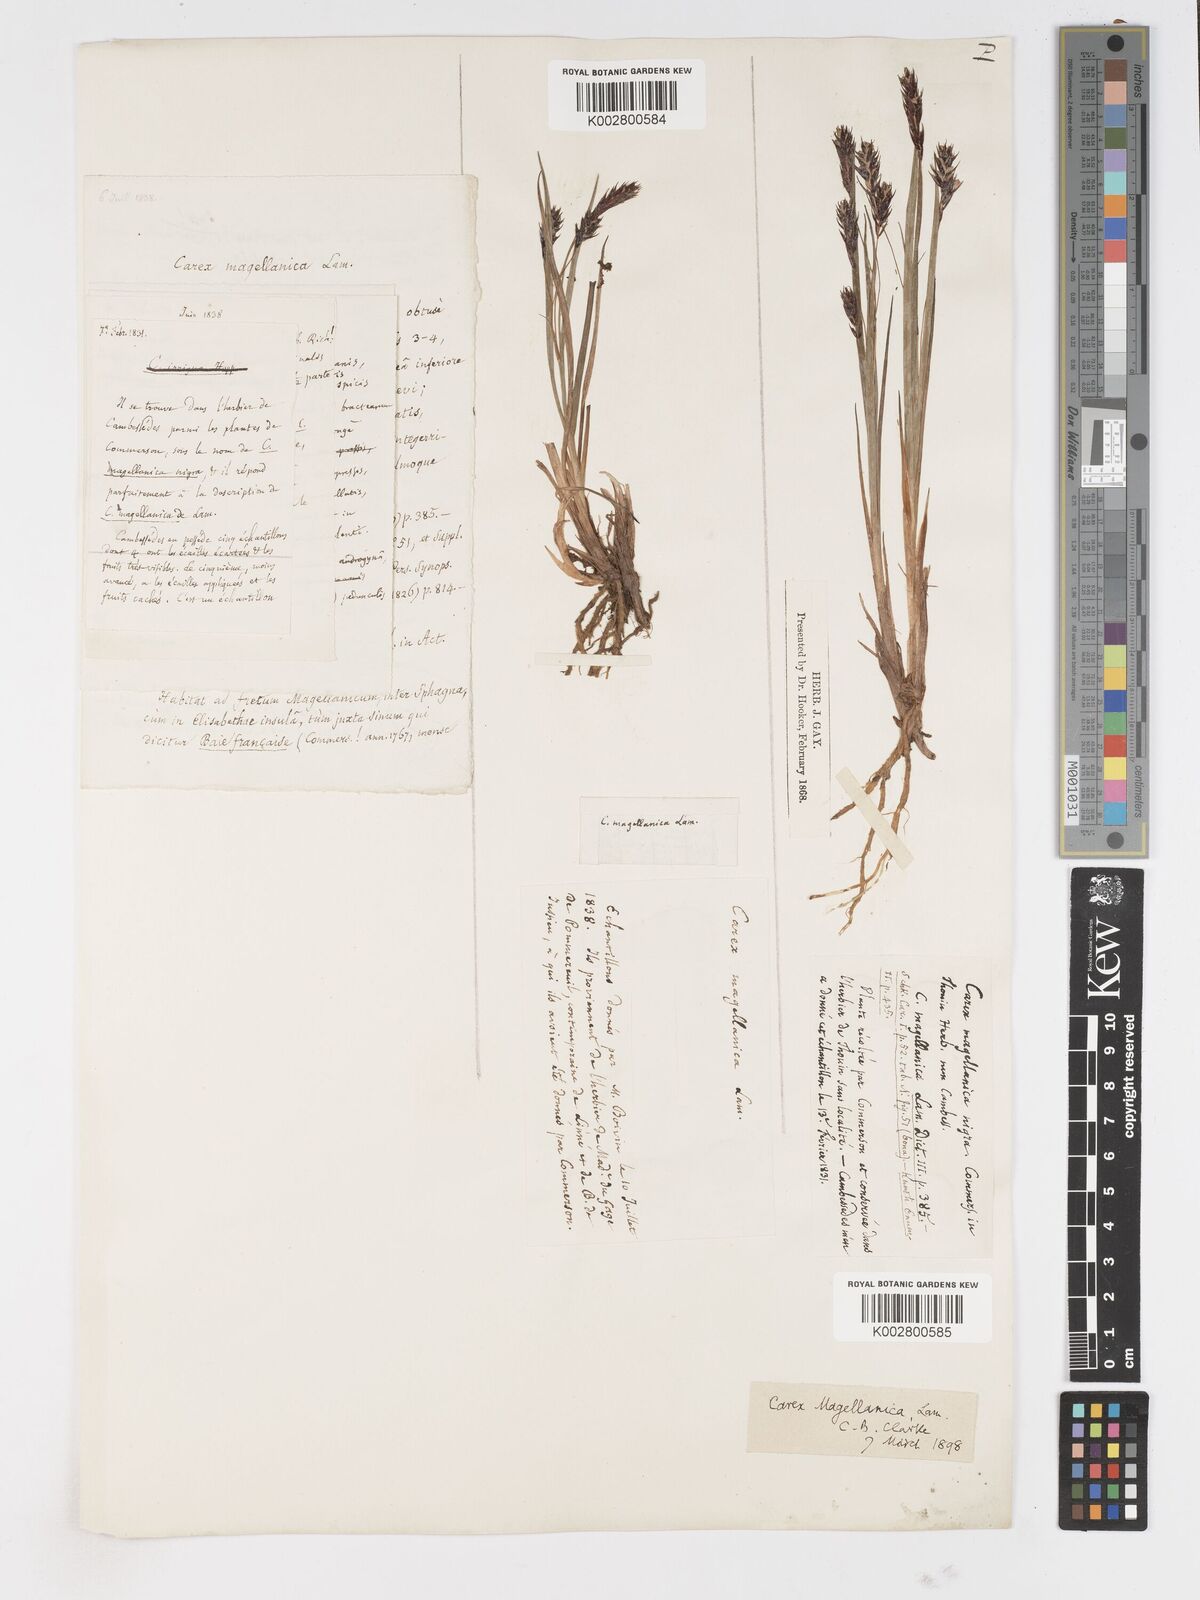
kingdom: Plantae
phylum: Tracheophyta
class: Liliopsida
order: Poales
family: Cyperaceae
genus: Carex
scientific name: Carex magellanica
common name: Bog sedge
